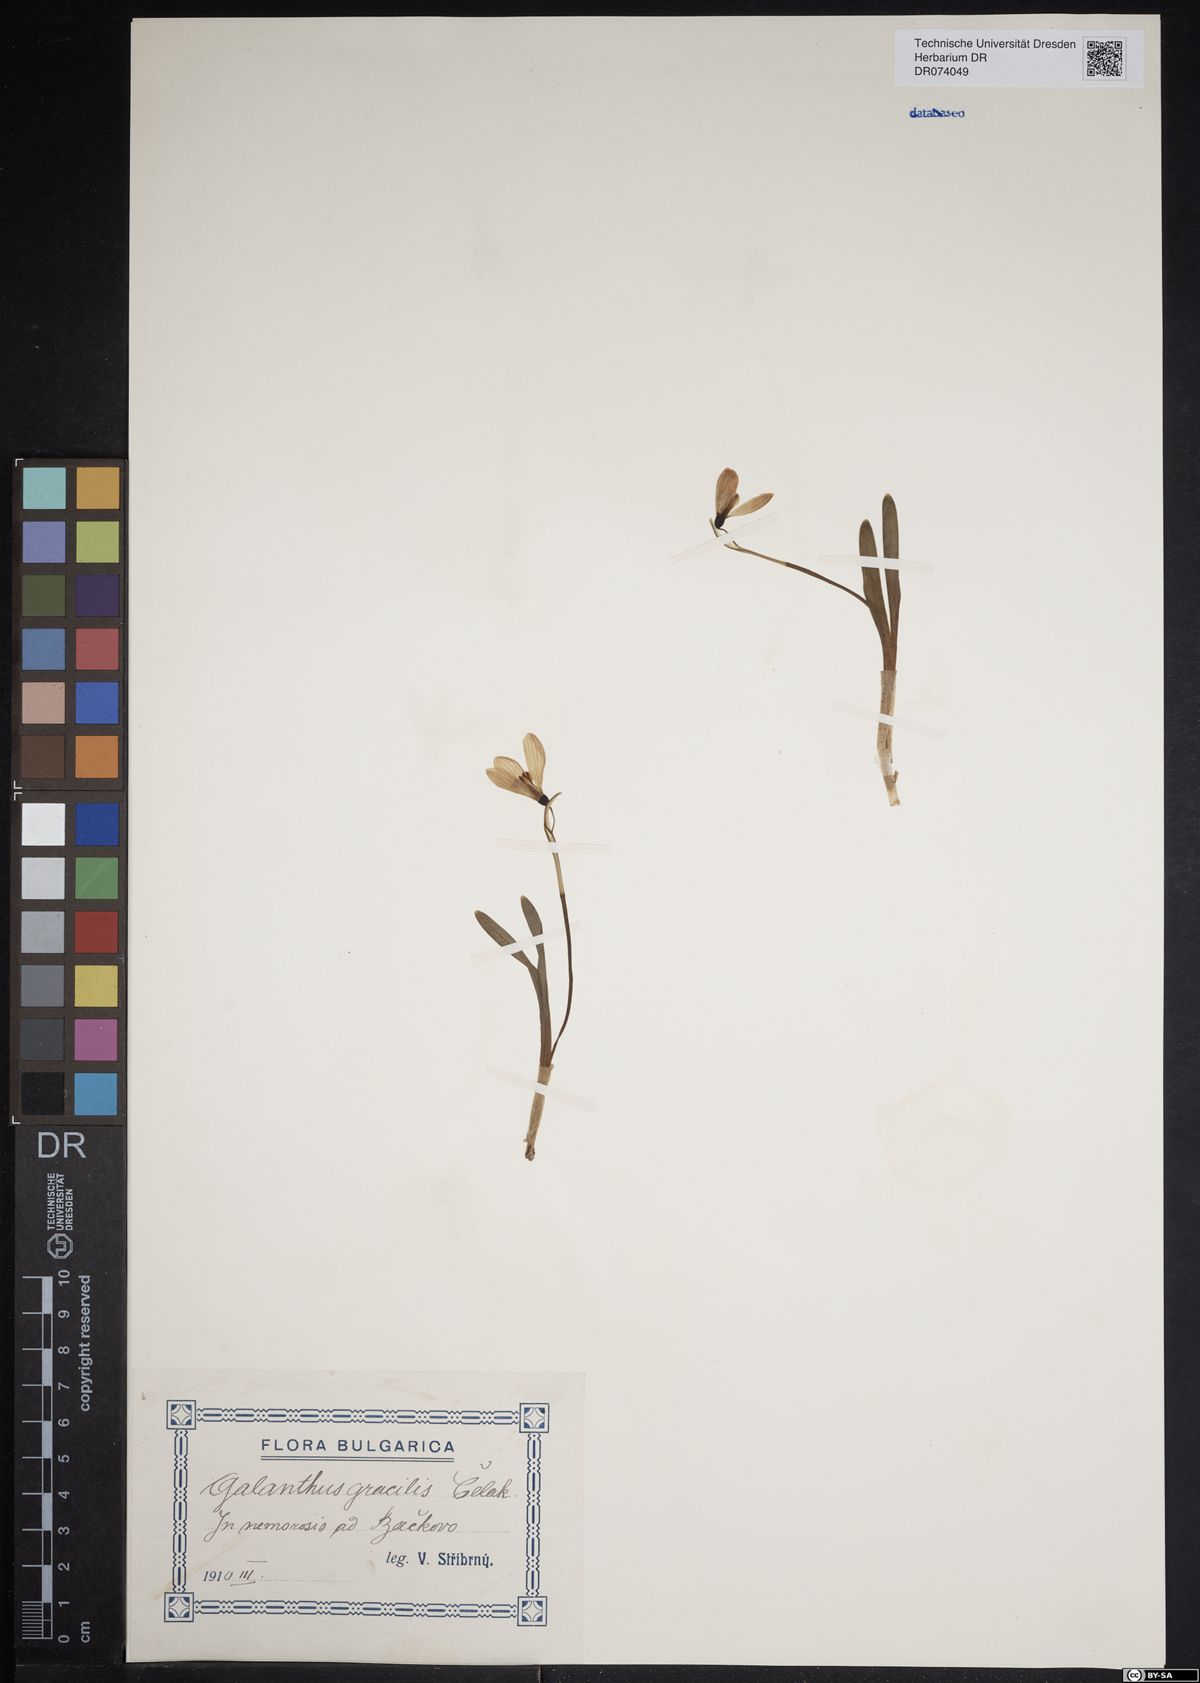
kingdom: Plantae
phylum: Tracheophyta
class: Liliopsida
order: Asparagales
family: Amaryllidaceae
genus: Galanthus
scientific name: Galanthus gracilis
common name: Snowdrop
